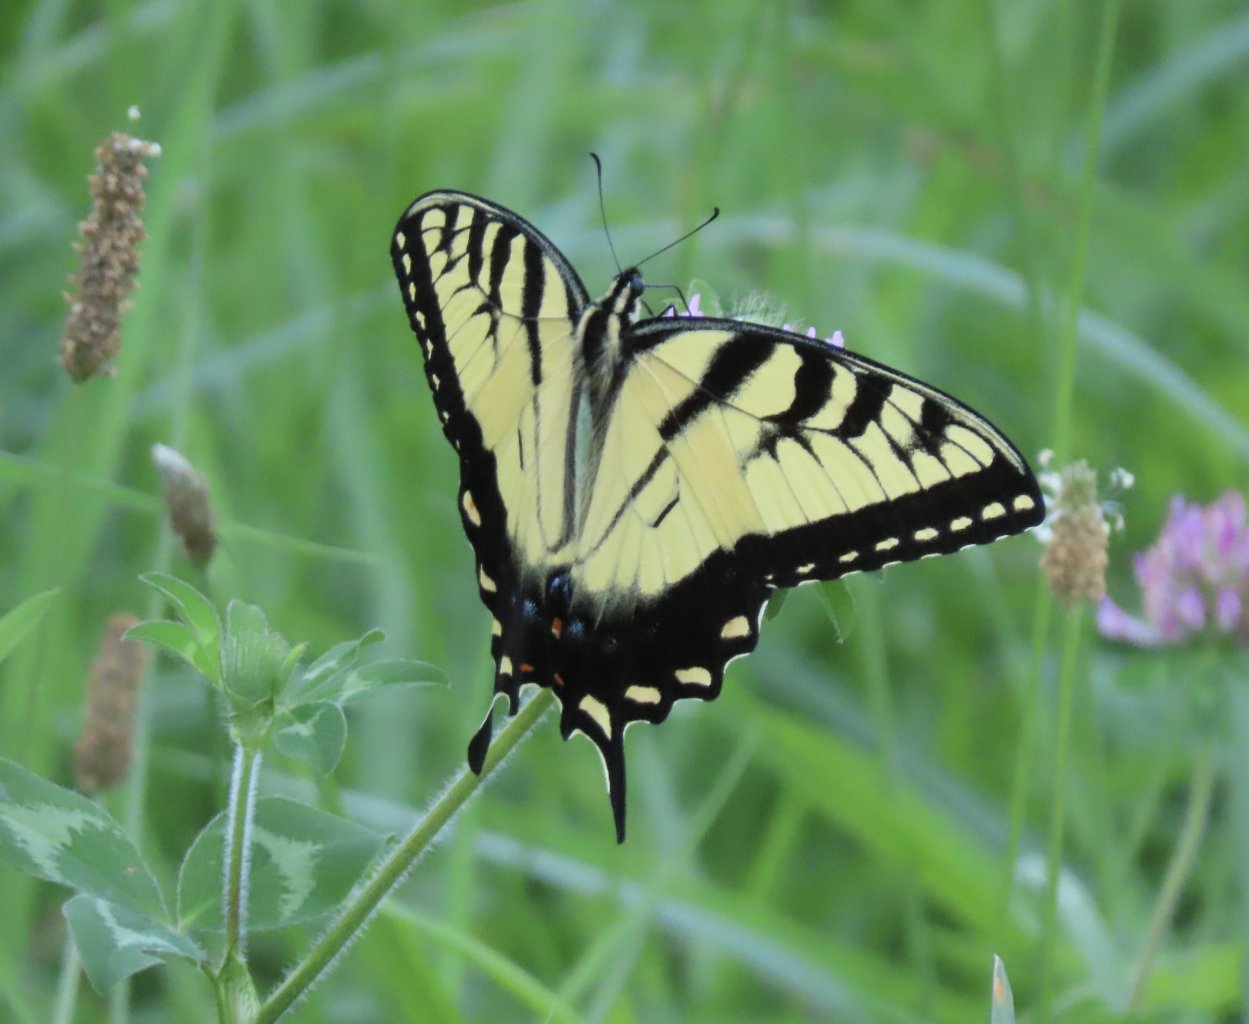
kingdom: Animalia
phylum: Arthropoda
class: Insecta
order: Lepidoptera
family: Papilionidae
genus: Pterourus
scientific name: Pterourus glaucus
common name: Eastern Tiger Swallowtail
